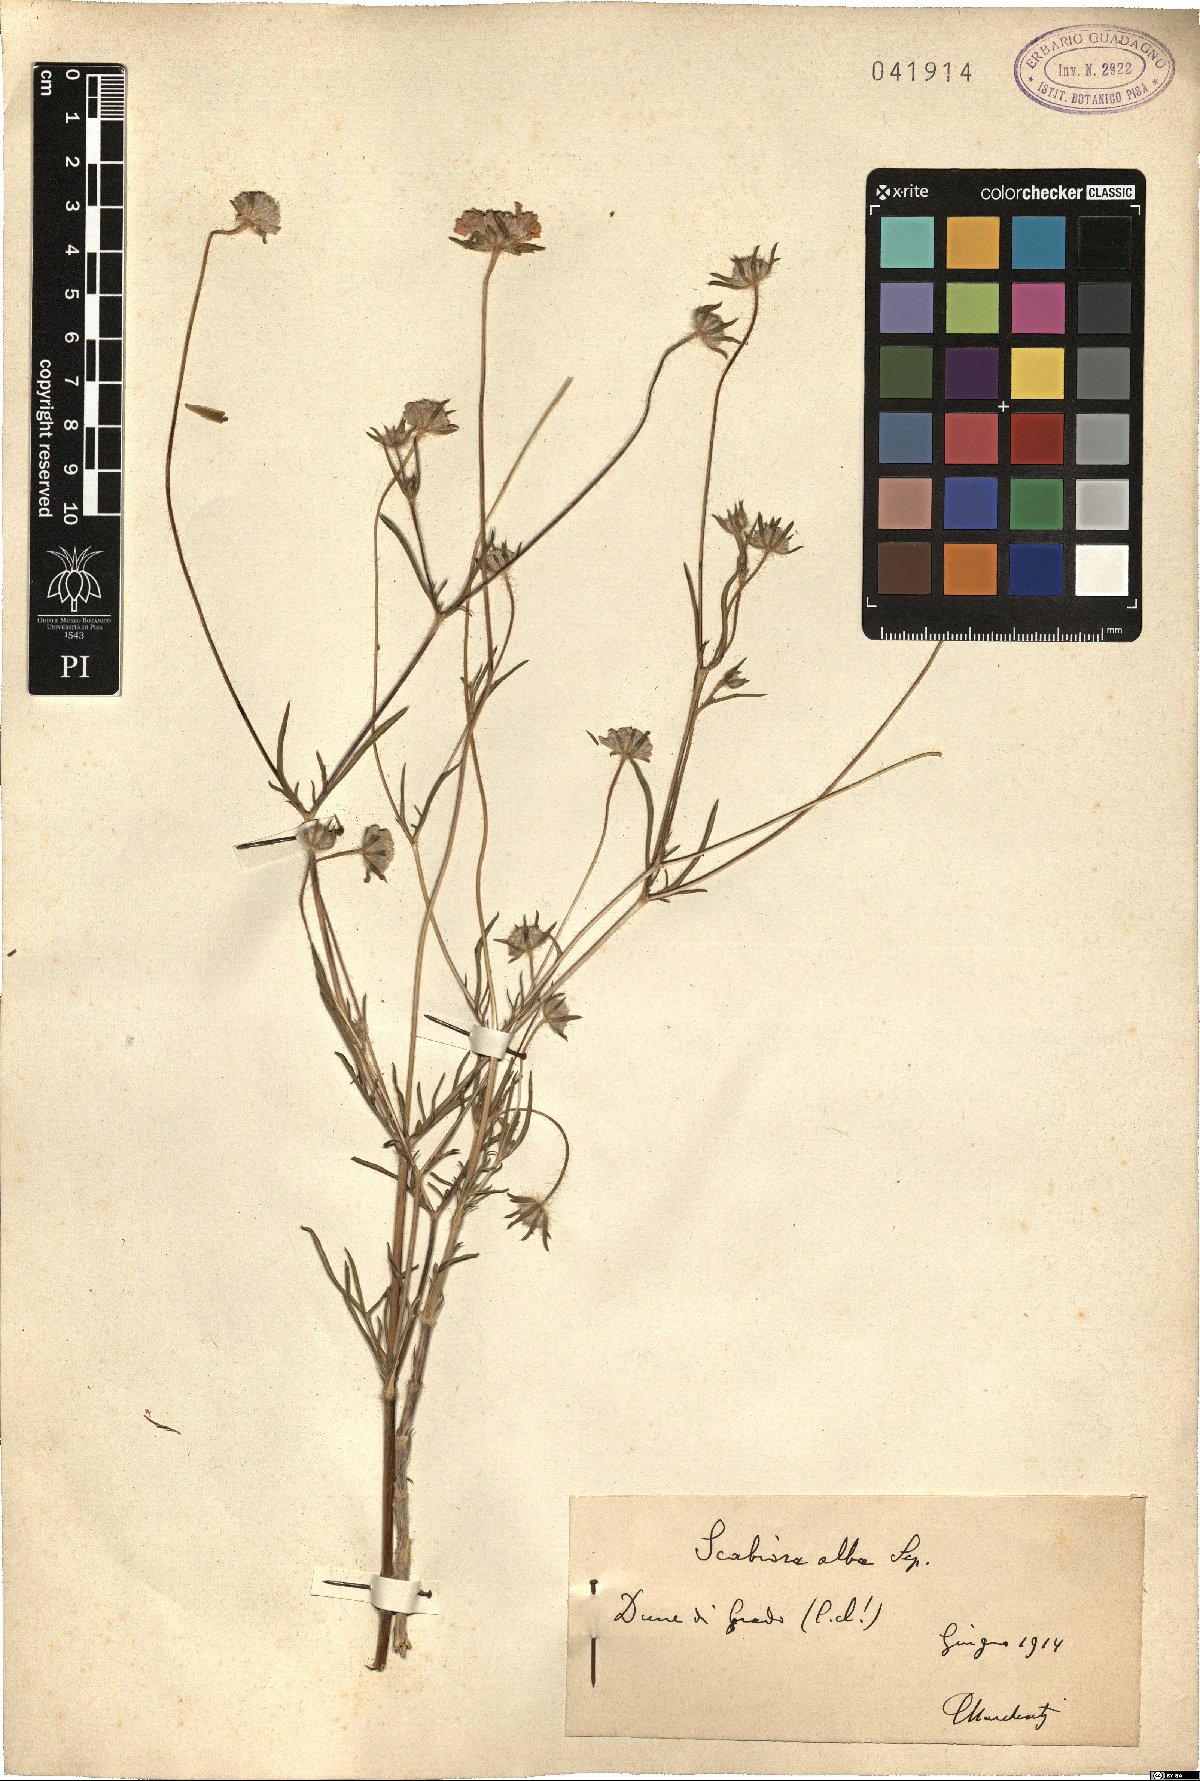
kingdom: Plantae
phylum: Tracheophyta
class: Magnoliopsida
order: Dipsacales
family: Caprifoliaceae
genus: Lomelosia
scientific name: Lomelosia argentea
